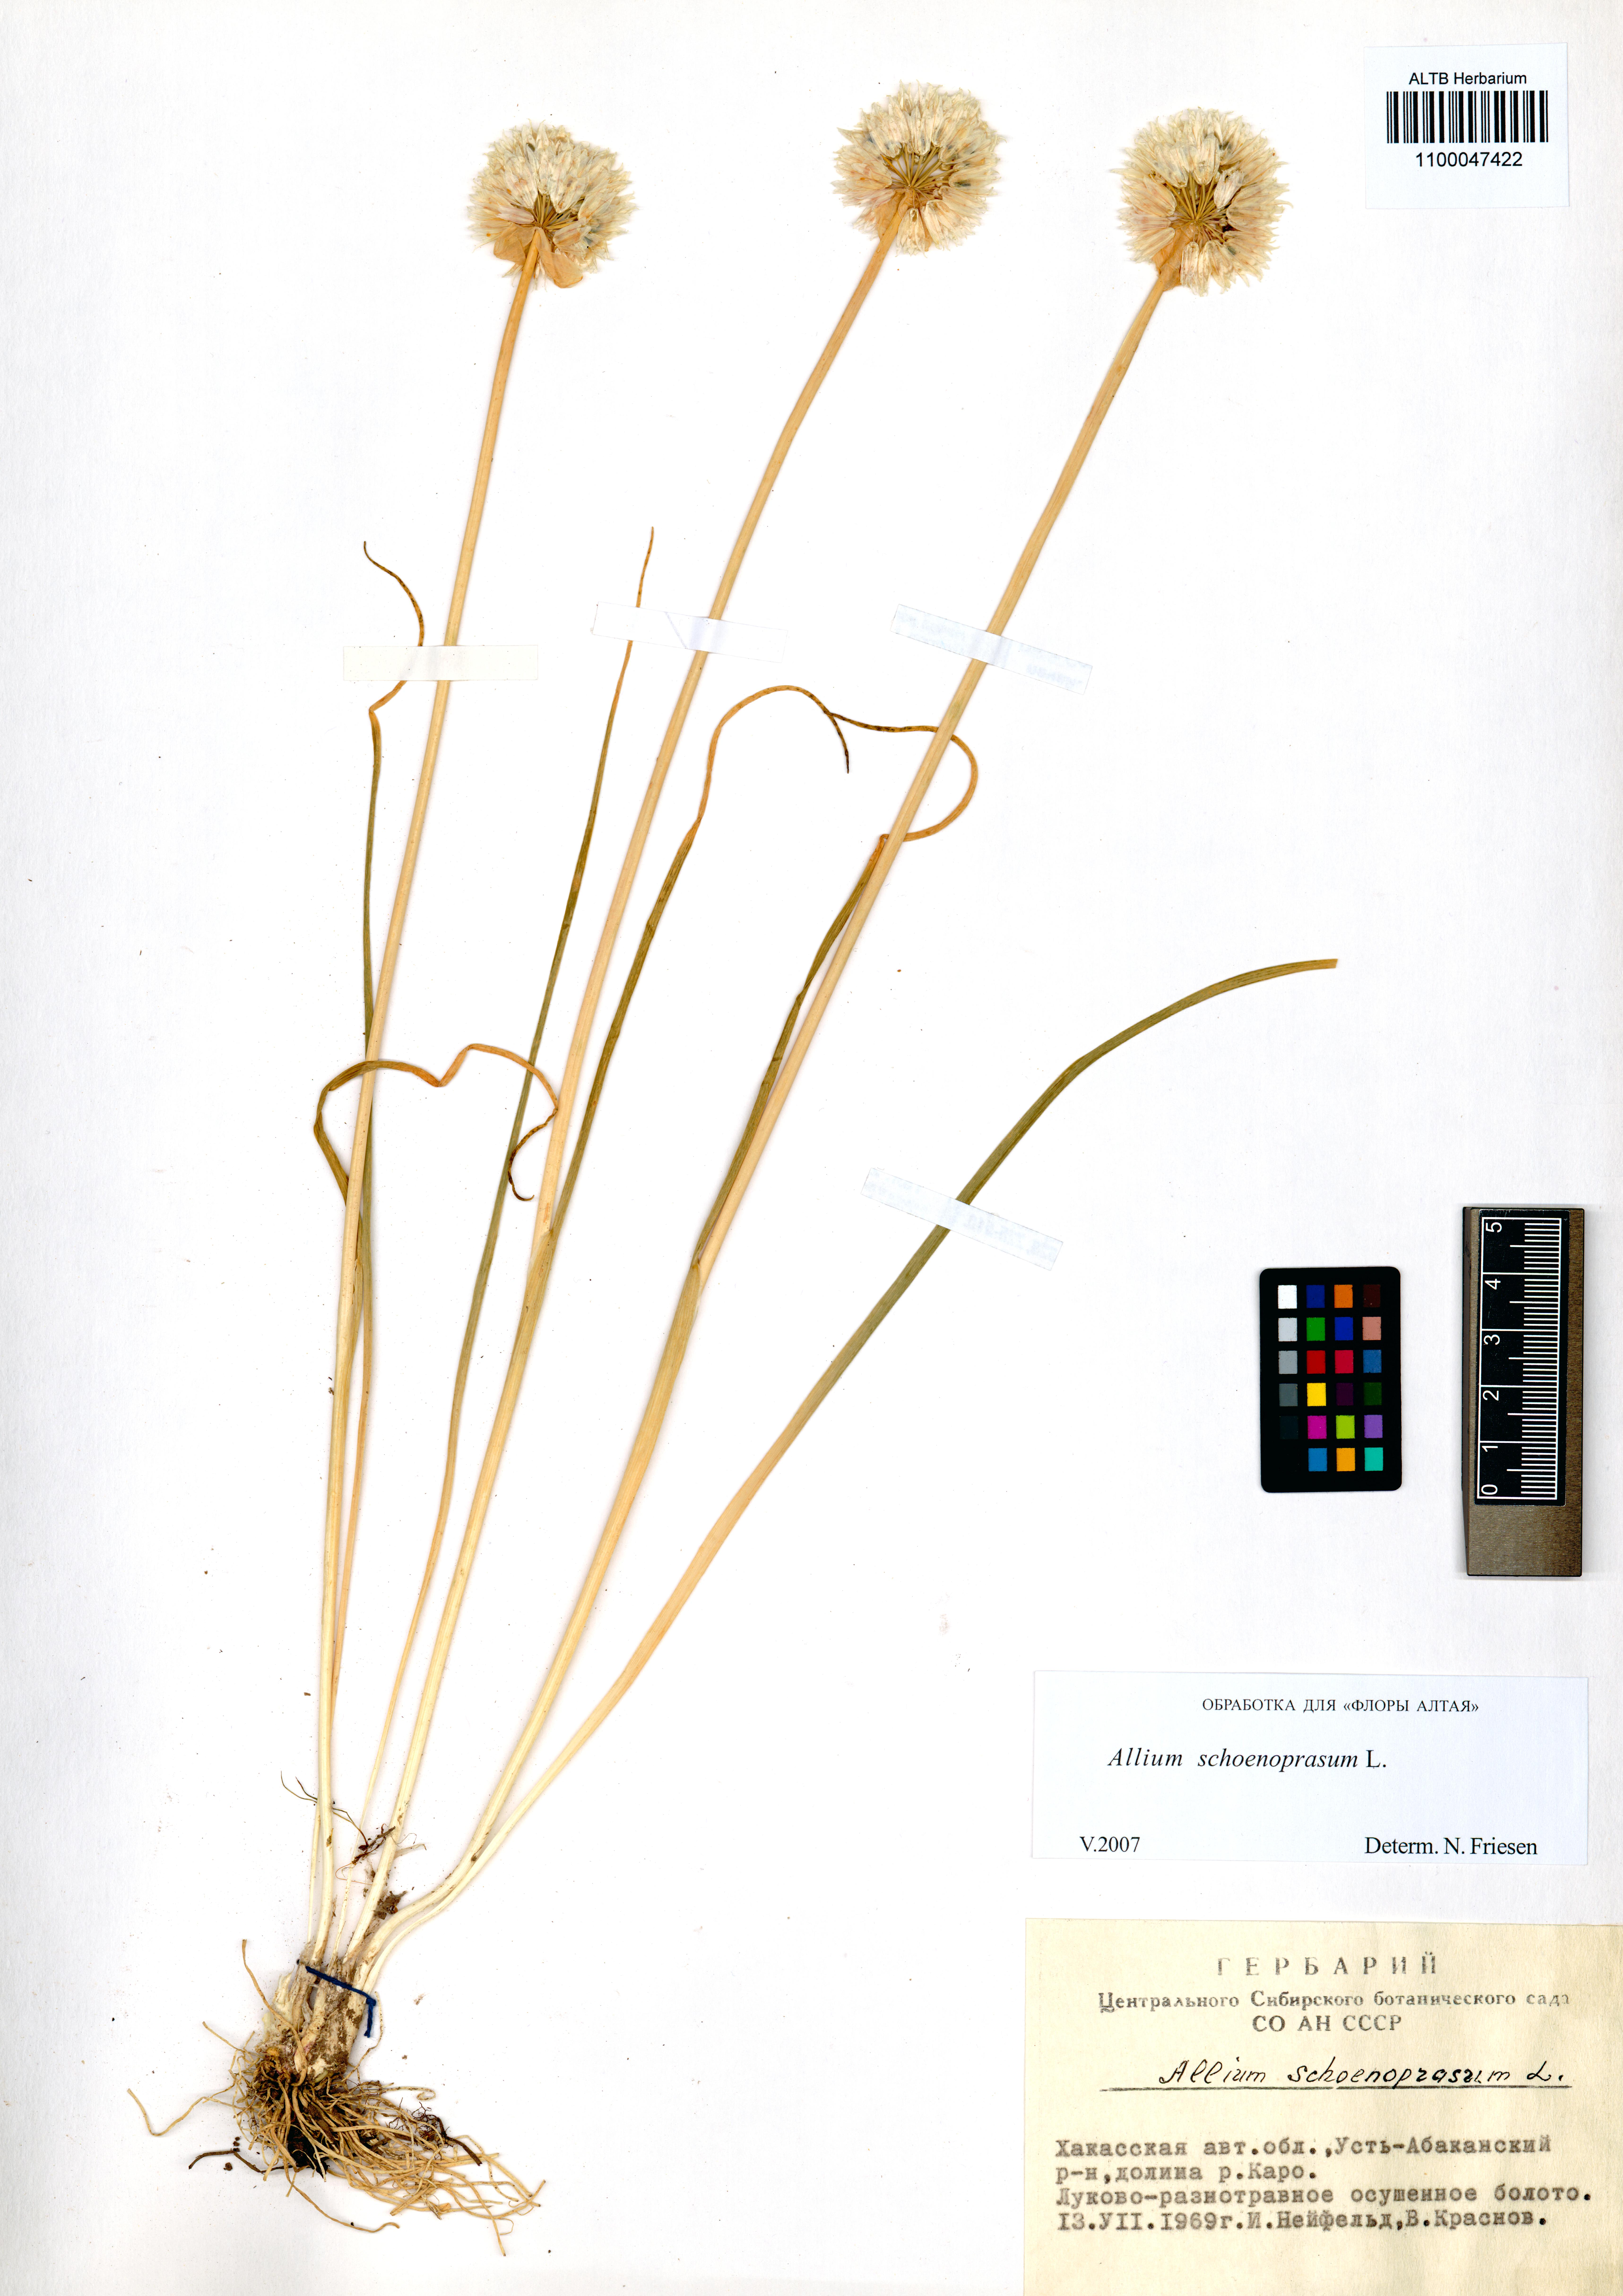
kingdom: Plantae
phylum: Tracheophyta
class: Liliopsida
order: Asparagales
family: Amaryllidaceae
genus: Allium
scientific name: Allium schoenoprasum
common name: Chives
